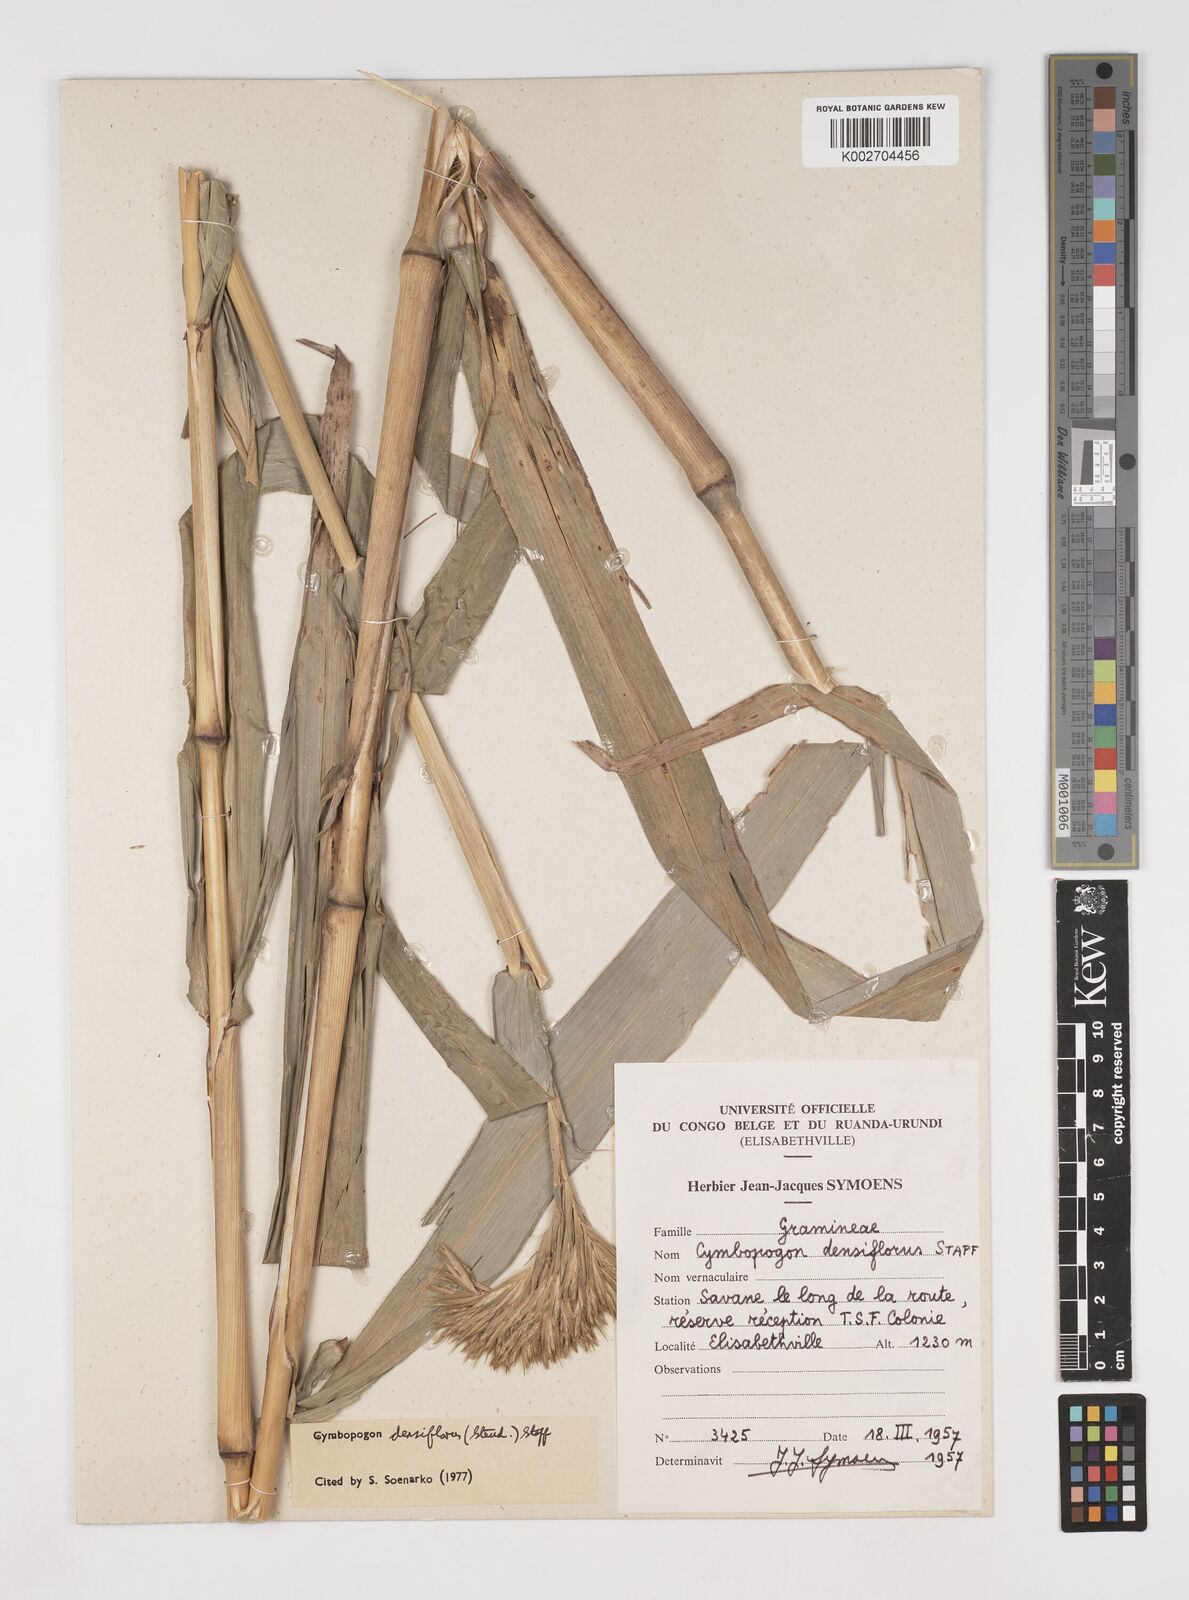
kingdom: Plantae
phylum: Tracheophyta
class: Liliopsida
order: Poales
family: Poaceae
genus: Cymbopogon
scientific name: Cymbopogon densiflorus
